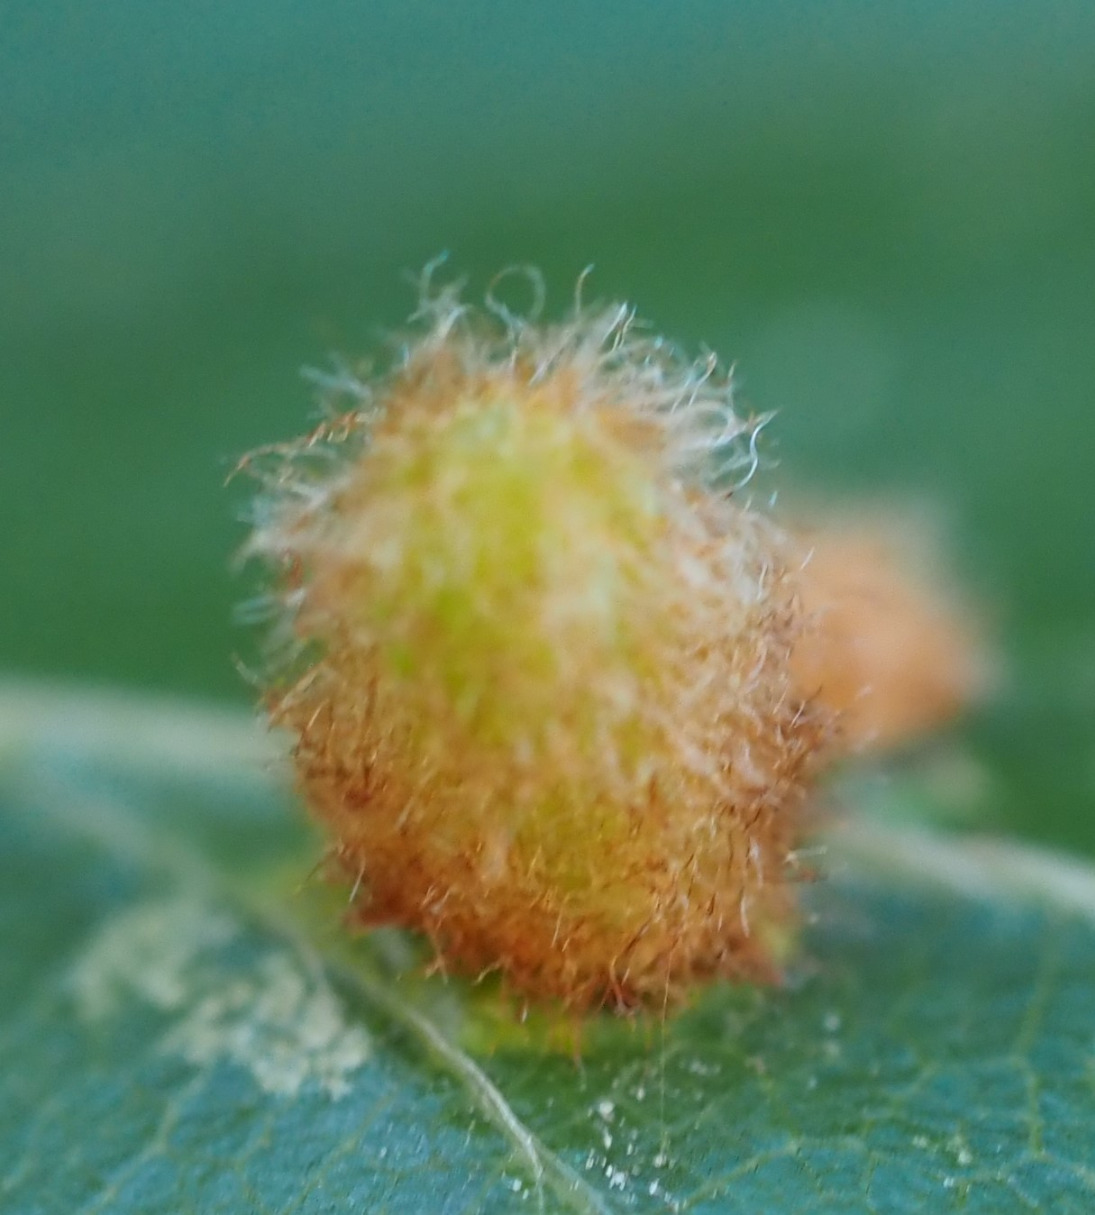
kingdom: Animalia
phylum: Arthropoda
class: Insecta
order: Diptera
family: Cecidomyiidae
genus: Hartigiola
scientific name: Hartigiola annulipes
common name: Skovtroldegalmyg
